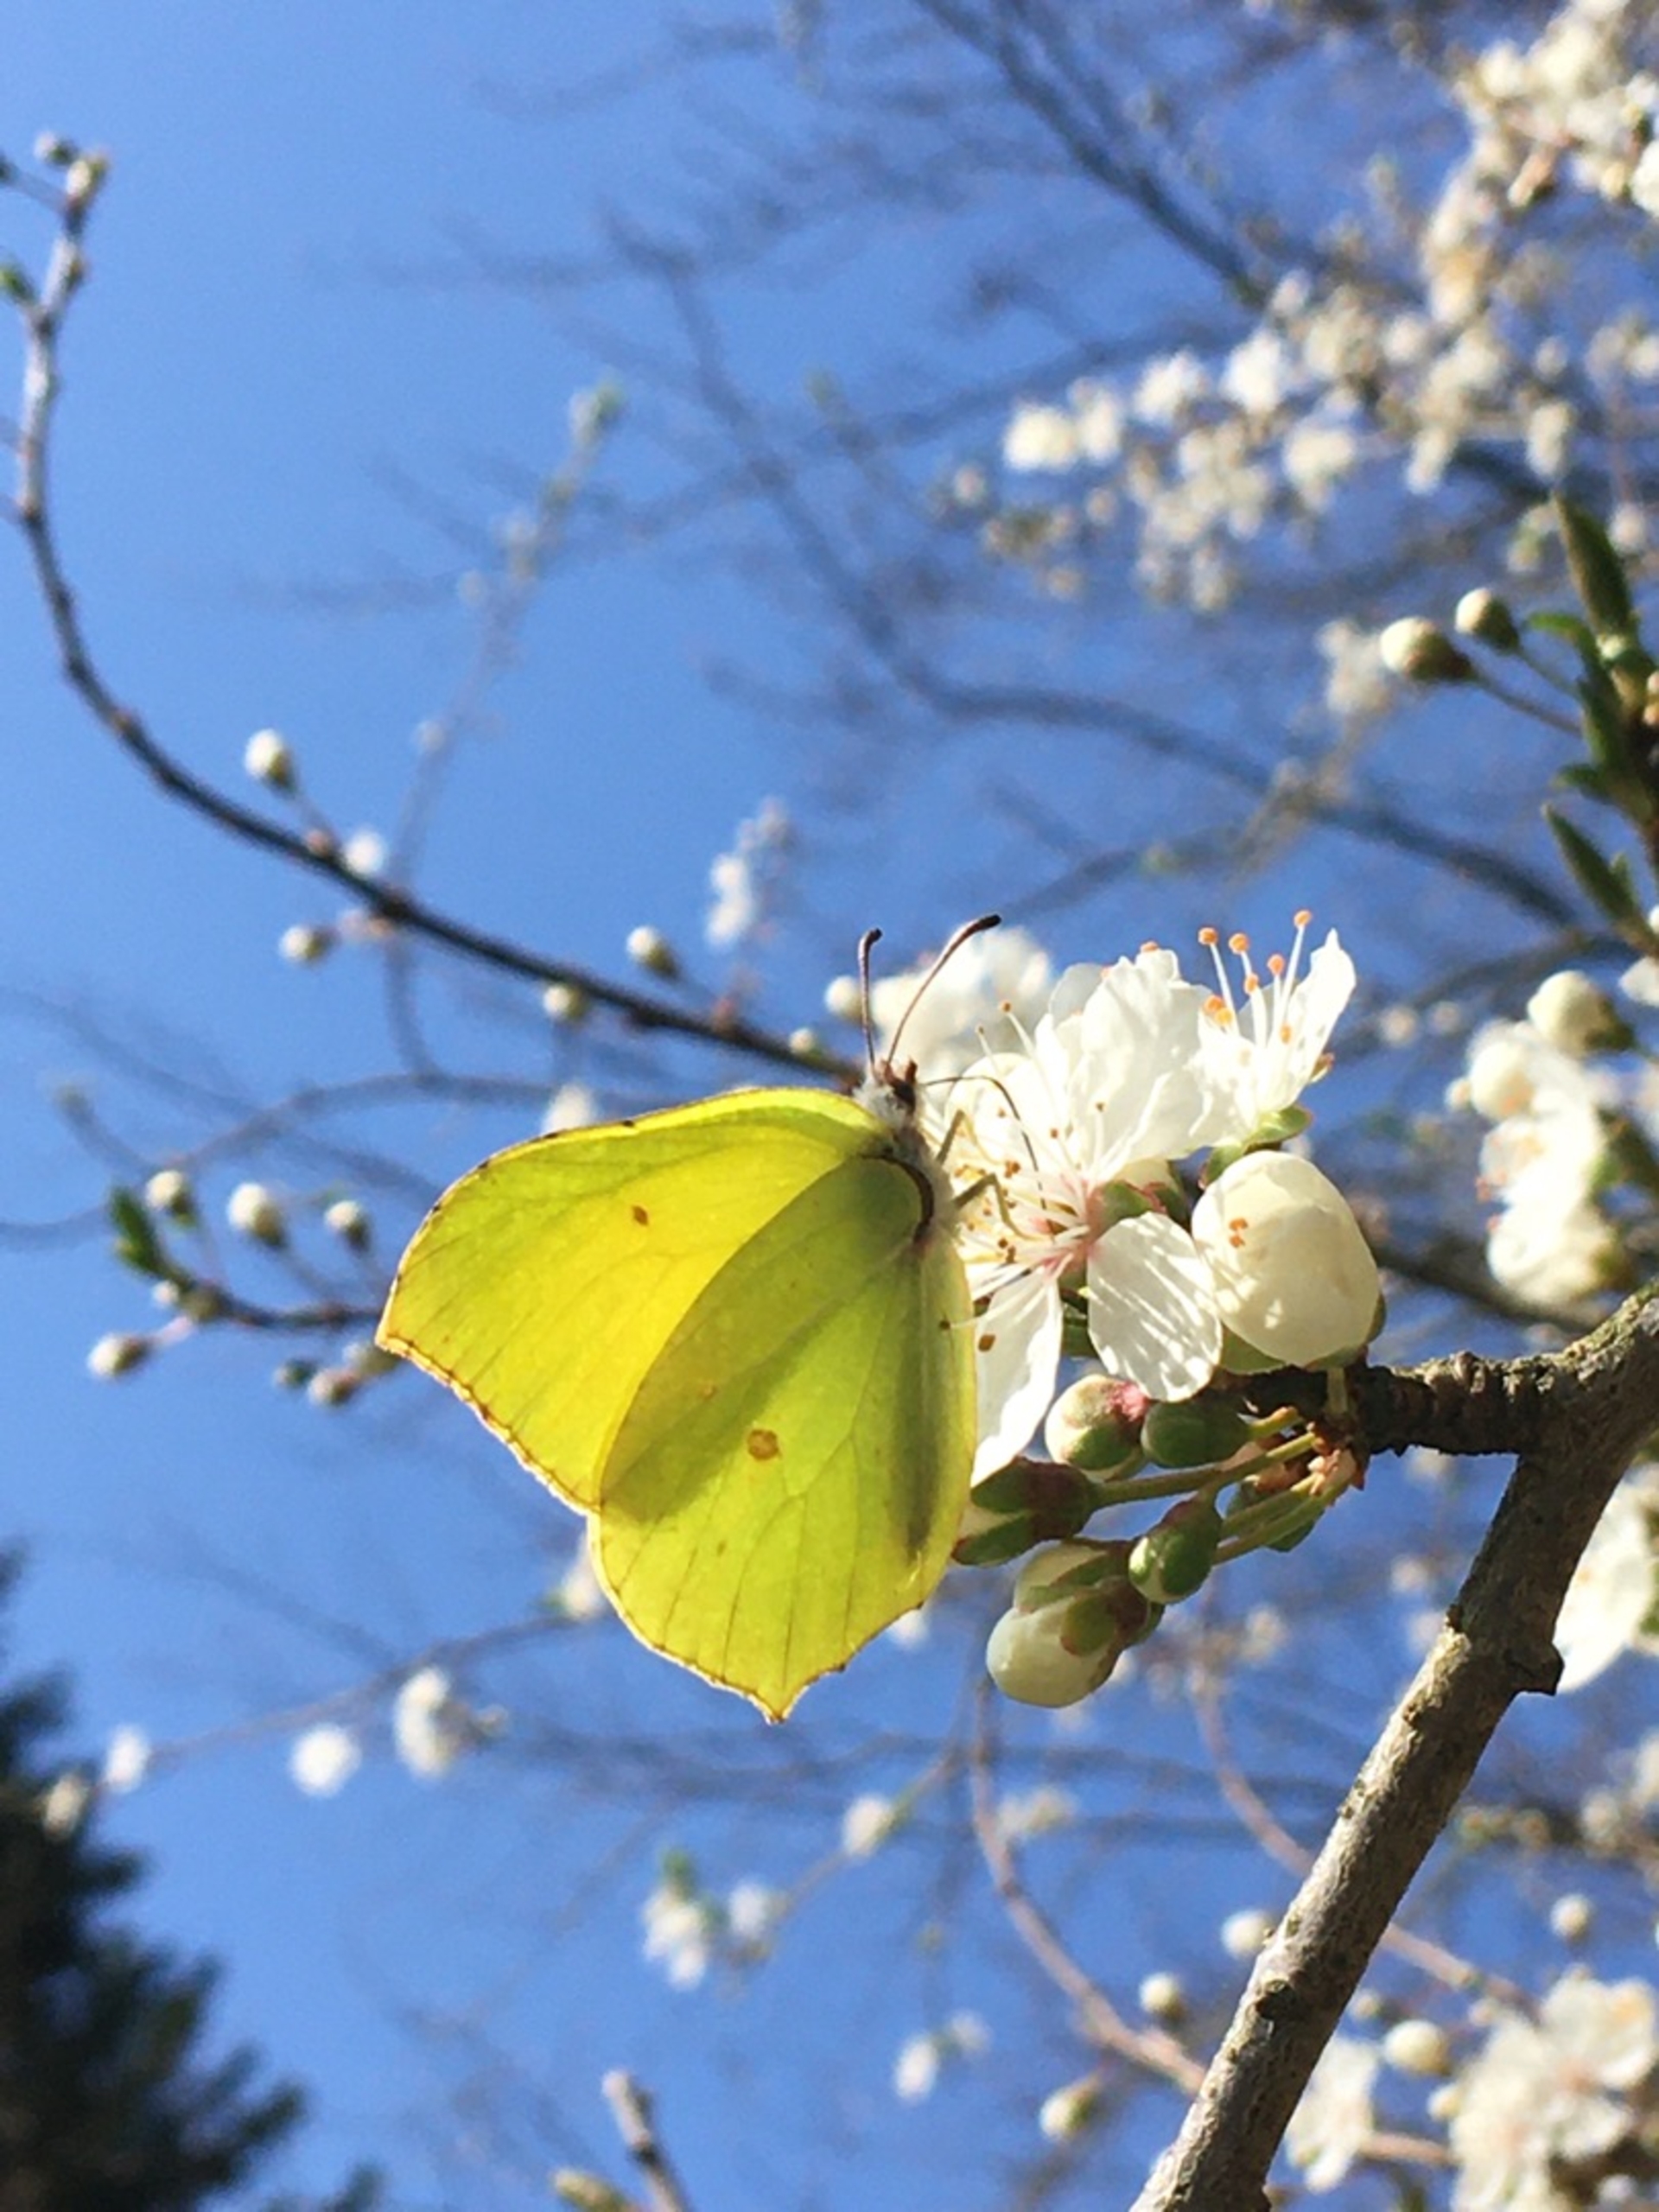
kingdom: Animalia
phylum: Arthropoda
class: Insecta
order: Lepidoptera
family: Pieridae
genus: Gonepteryx
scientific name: Gonepteryx rhamni
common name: Citronsommerfugl
